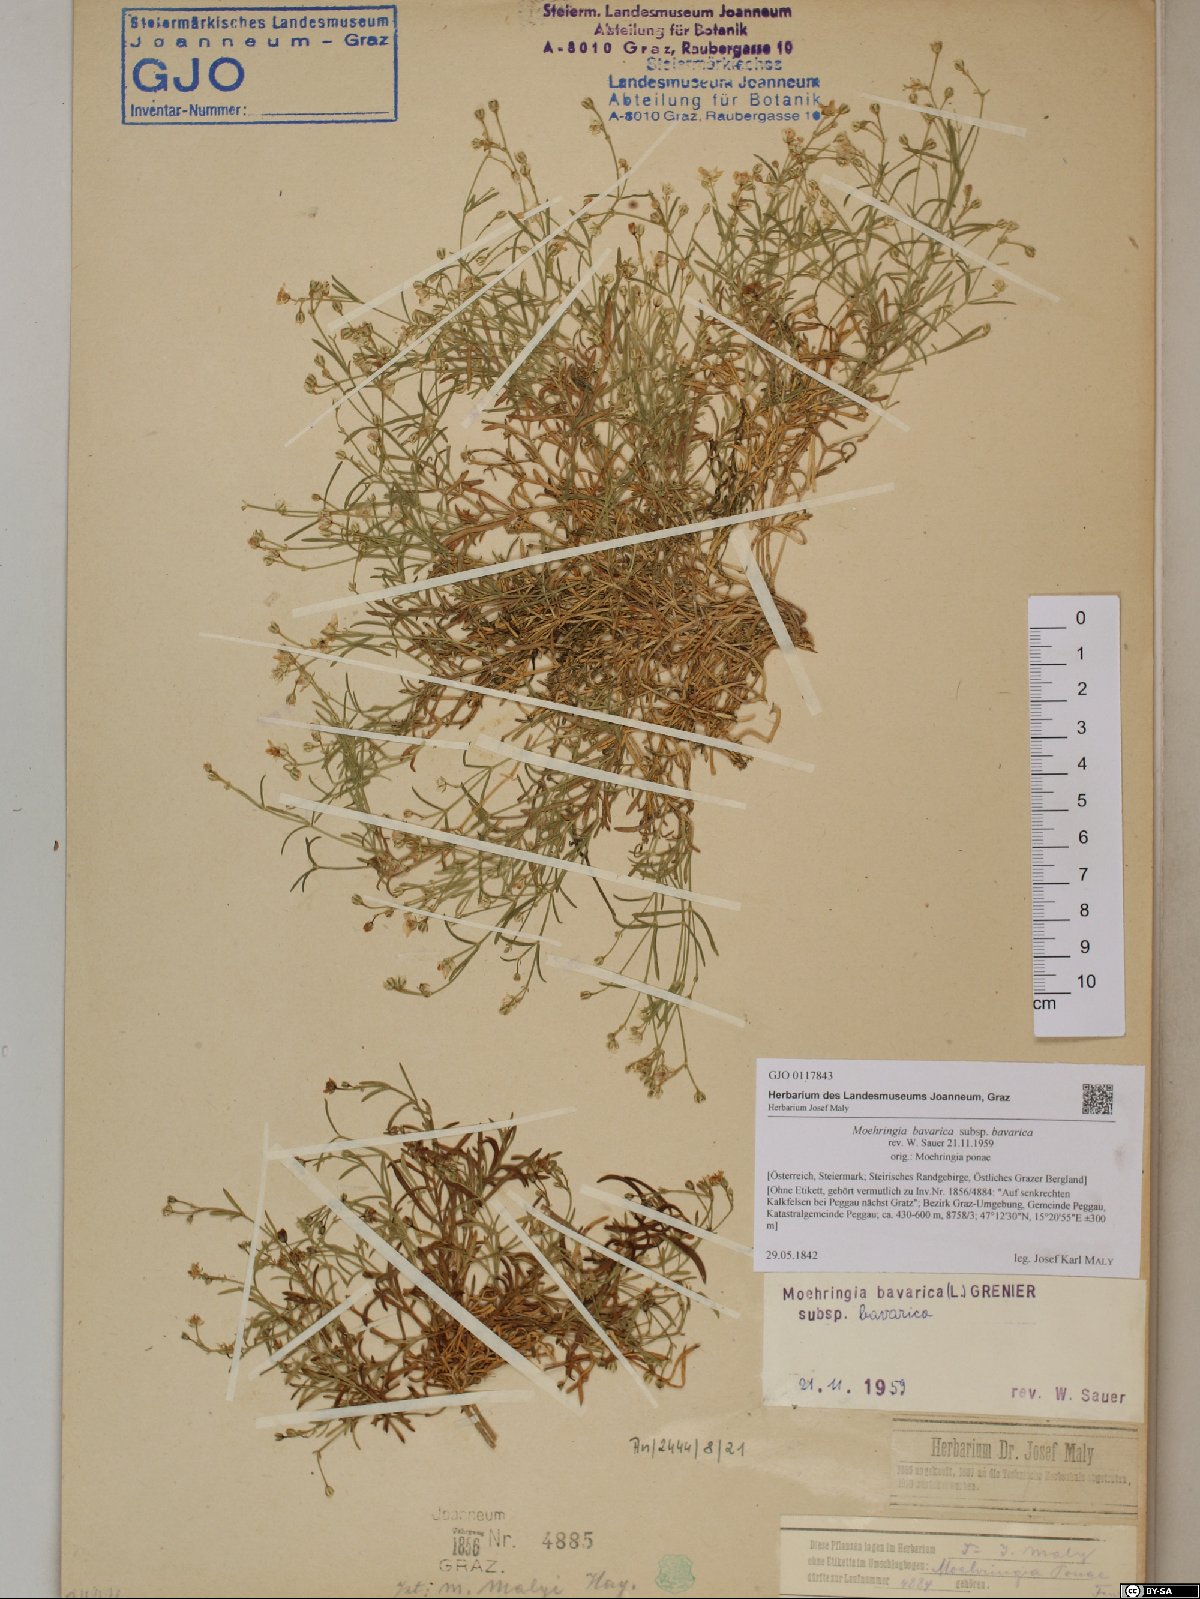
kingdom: Plantae
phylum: Tracheophyta
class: Magnoliopsida
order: Caryophyllales
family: Caryophyllaceae
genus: Moehringia
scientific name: Moehringia bavarica
